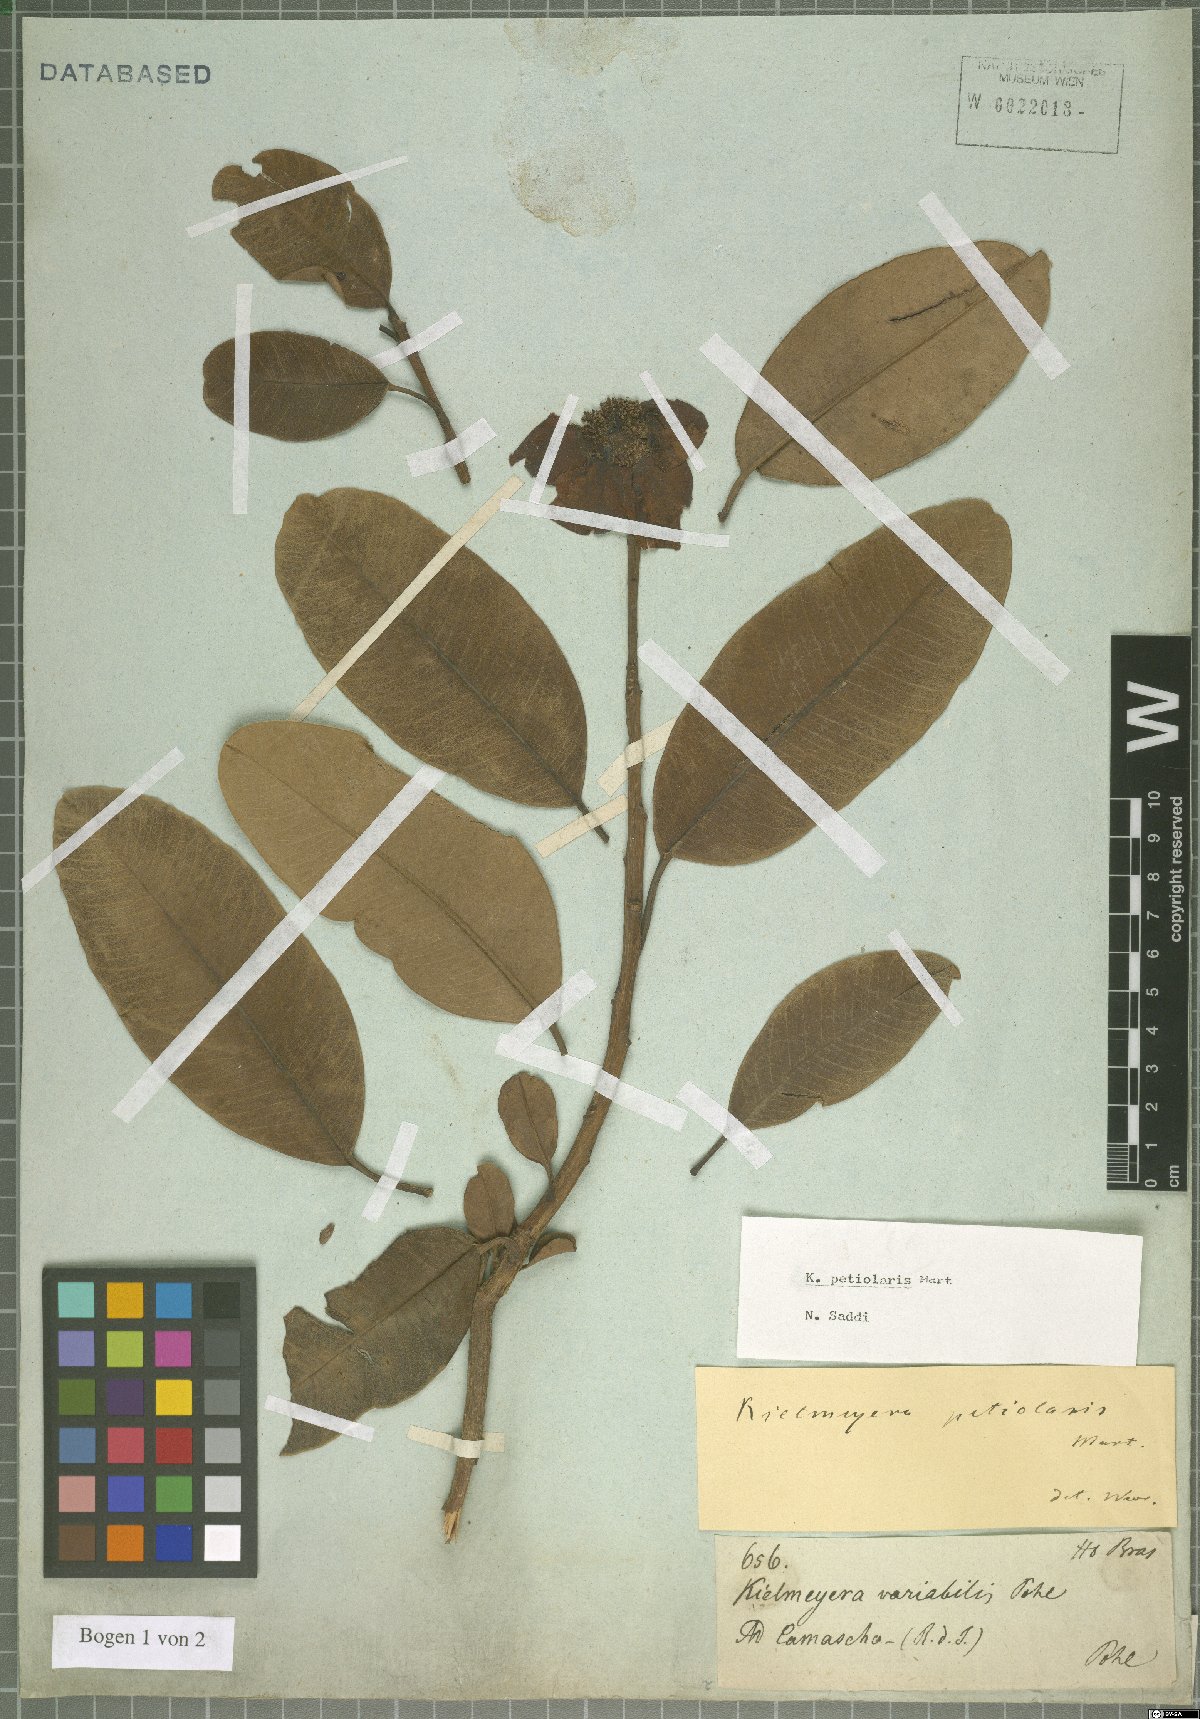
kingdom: Plantae
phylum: Tracheophyta
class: Magnoliopsida
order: Malpighiales
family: Calophyllaceae
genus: Kielmeyera
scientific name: Kielmeyera petiolaris
